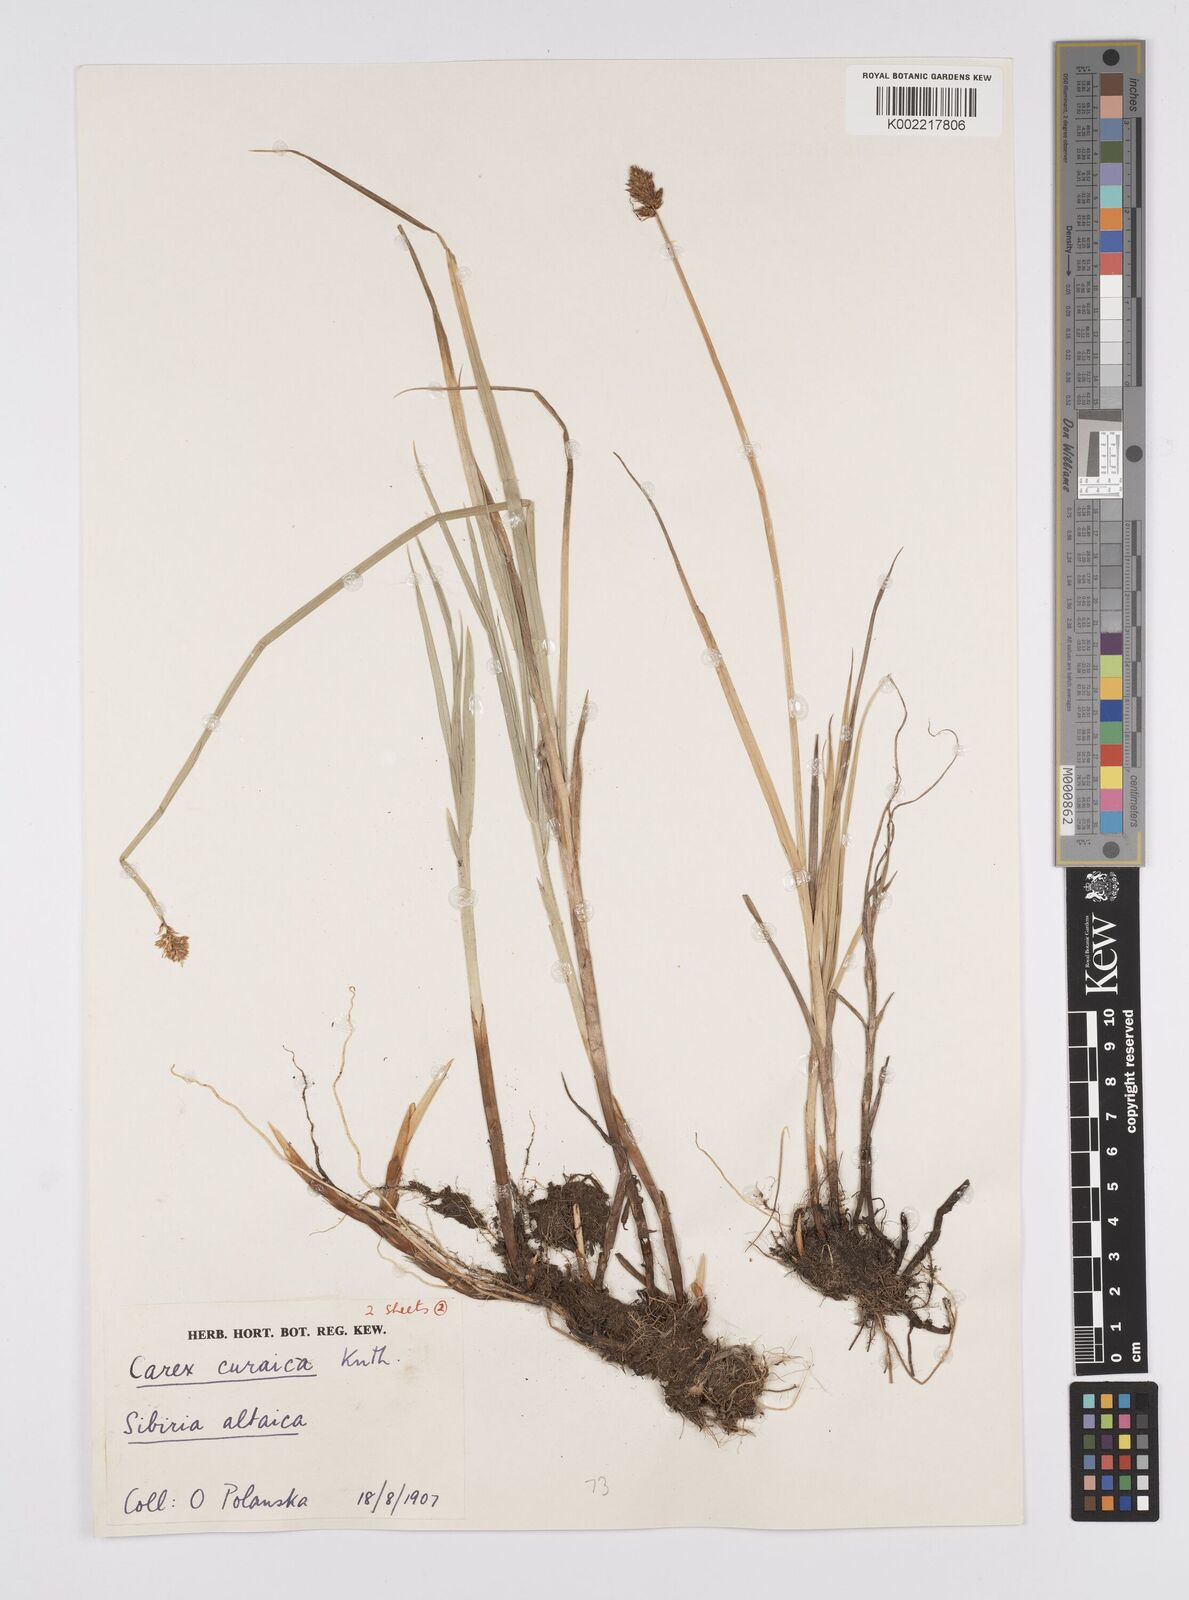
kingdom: Plantae
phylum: Tracheophyta
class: Liliopsida
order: Poales
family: Cyperaceae
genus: Carex
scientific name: Carex curaica
